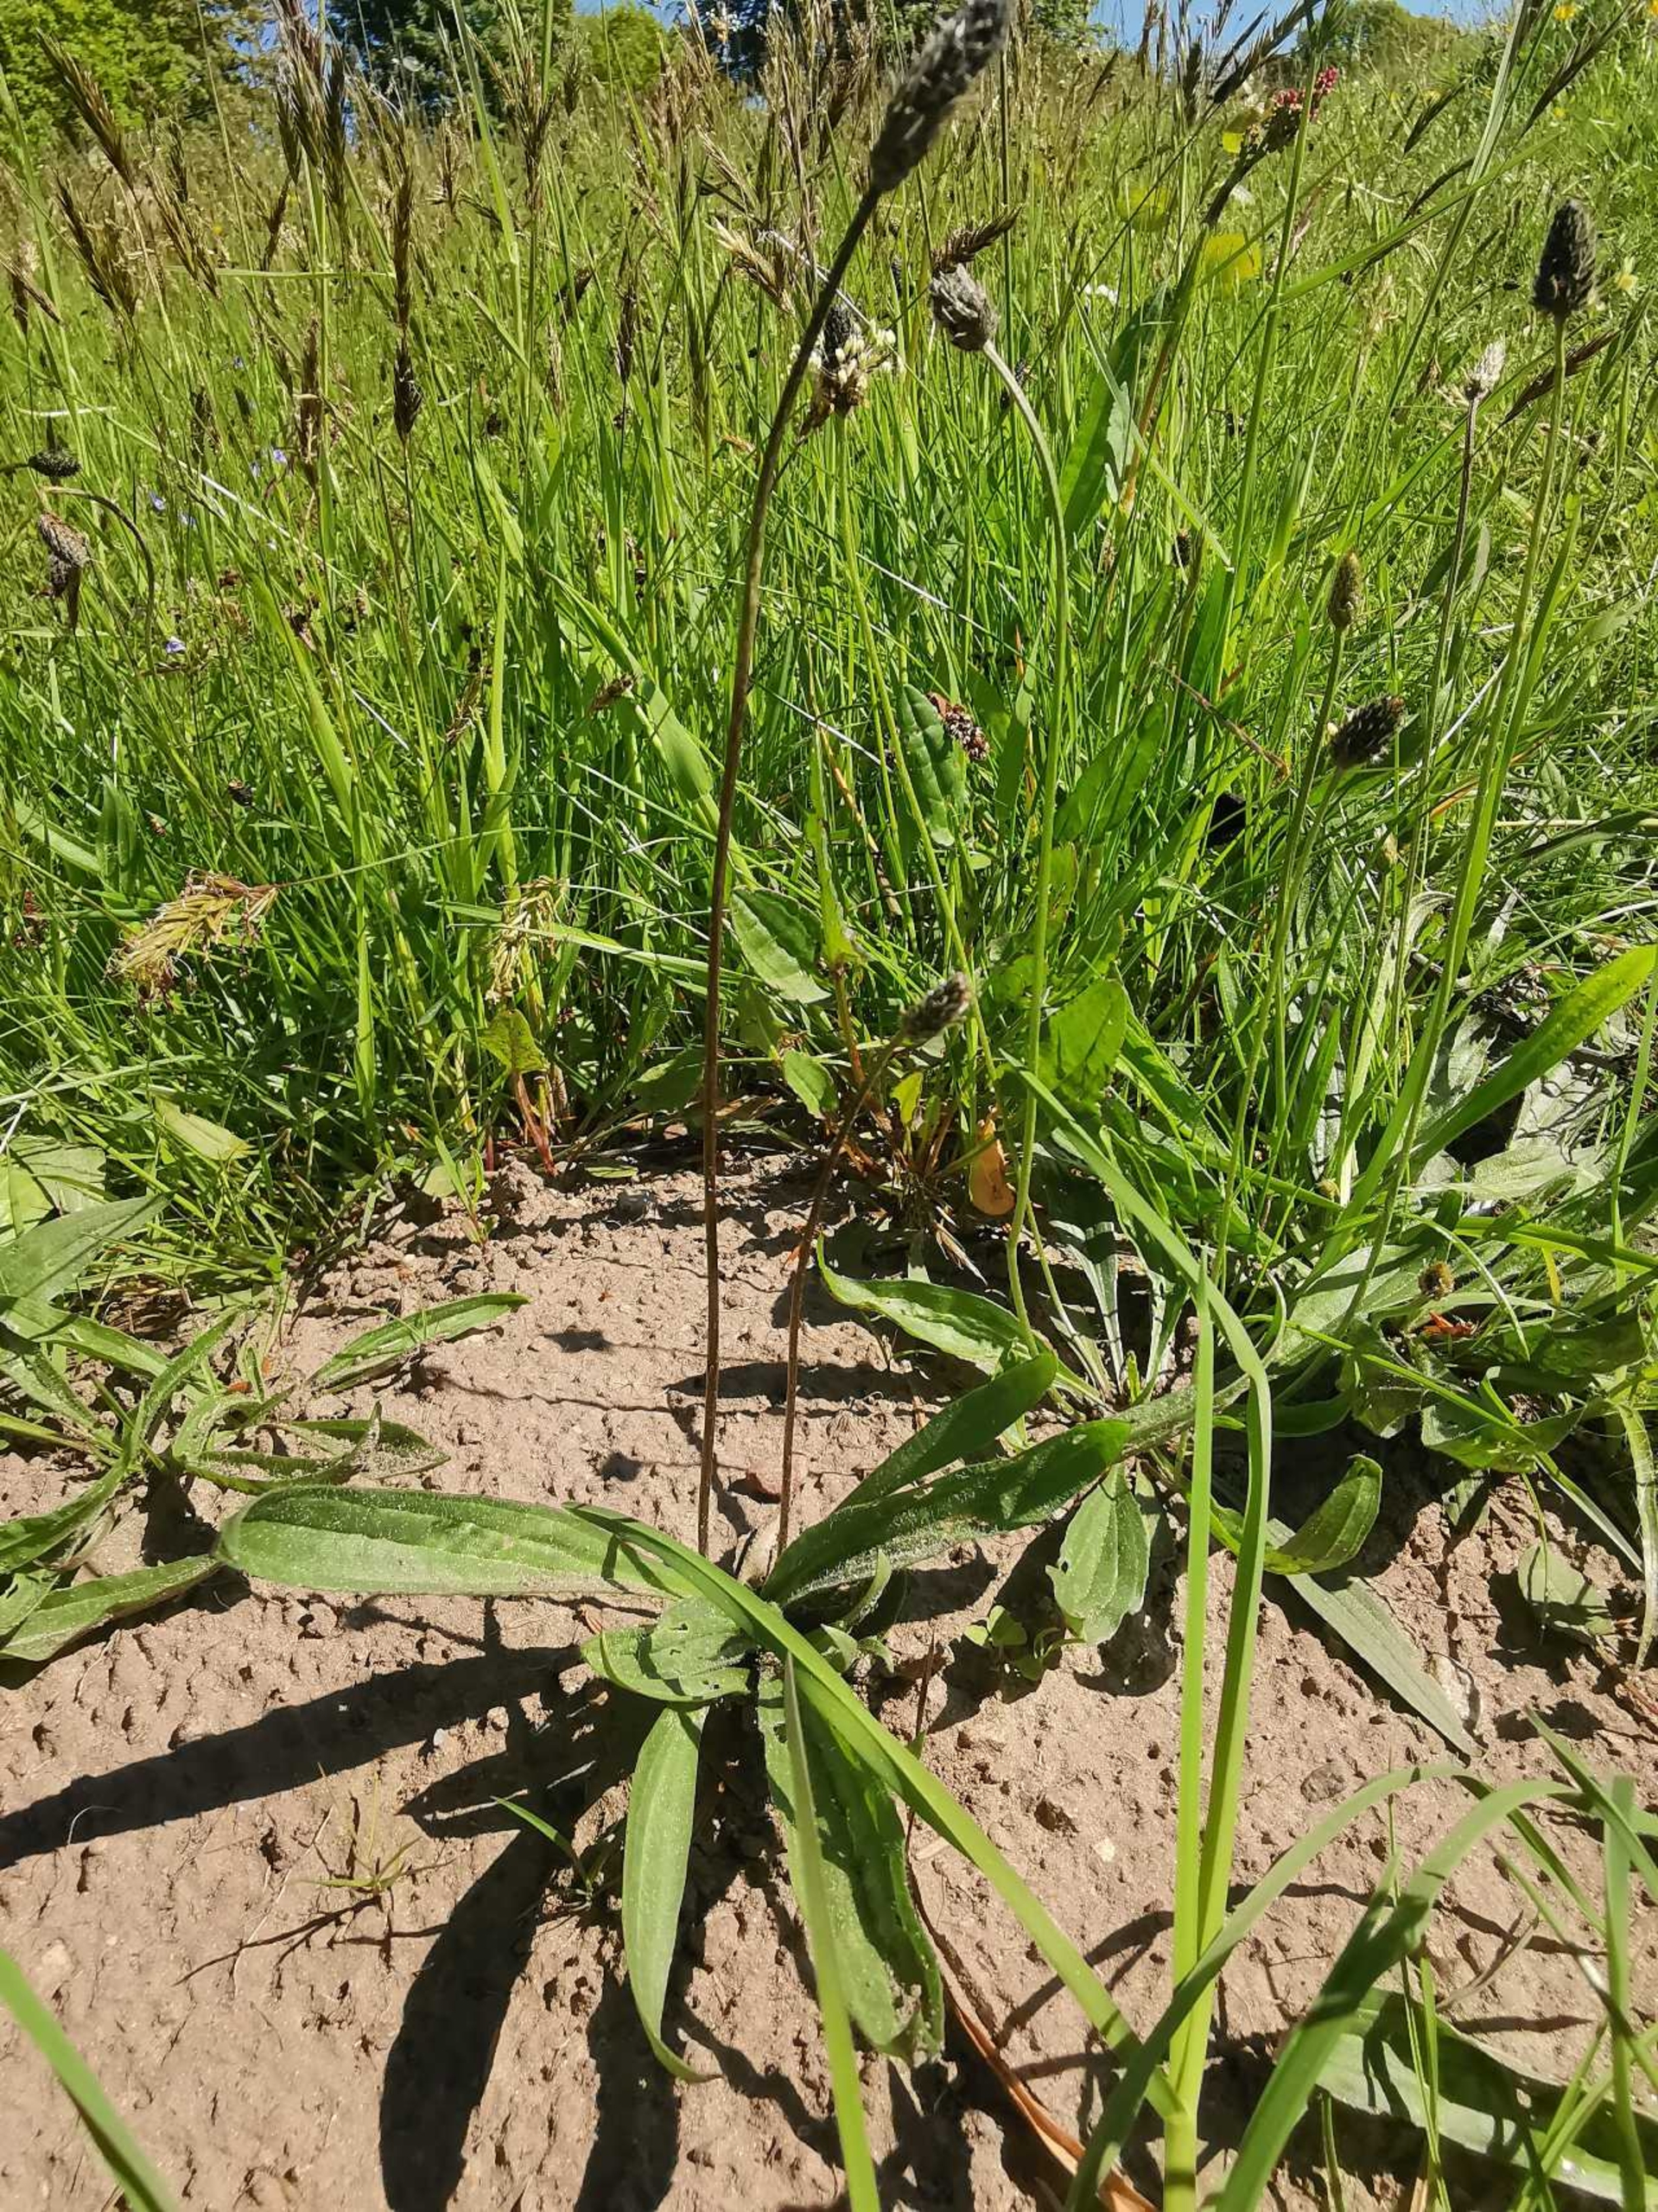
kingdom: Plantae
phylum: Tracheophyta
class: Magnoliopsida
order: Lamiales
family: Plantaginaceae
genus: Plantago
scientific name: Plantago lanceolata
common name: Lancet-vejbred
